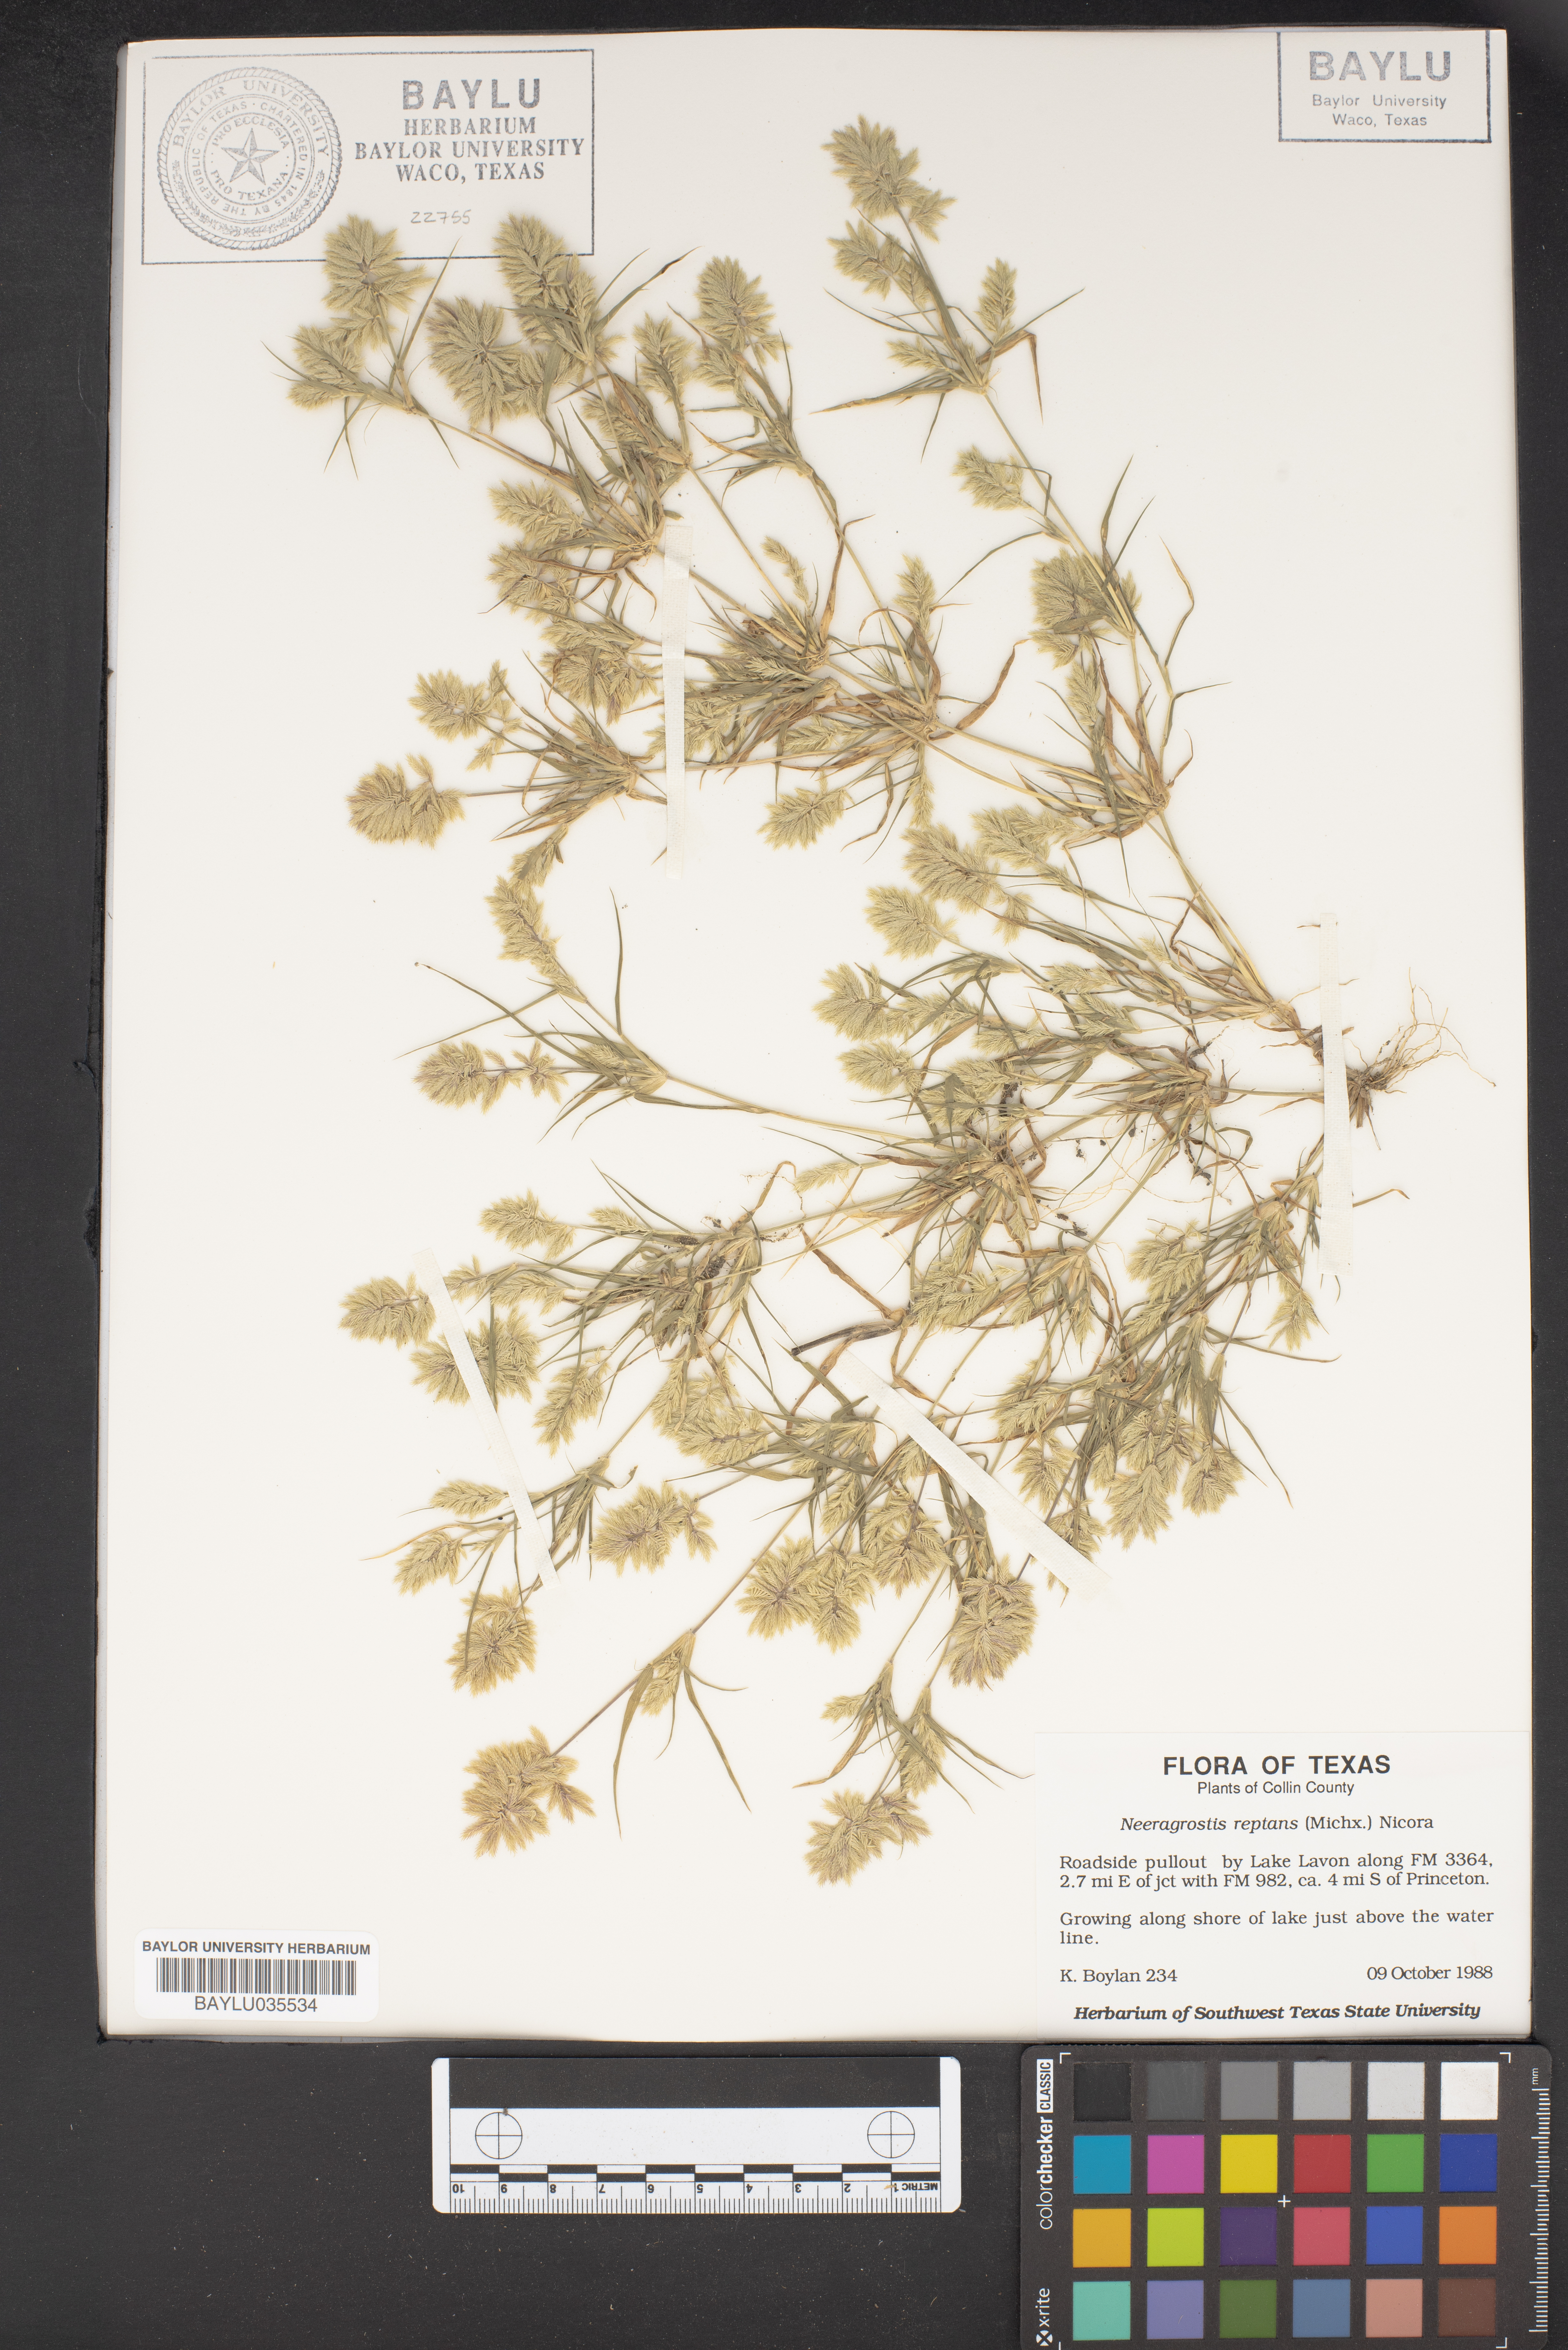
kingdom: Plantae
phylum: Tracheophyta
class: Liliopsida
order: Poales
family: Poaceae
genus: Eragrostis
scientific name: Eragrostis reptans
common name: Creeping love grass
